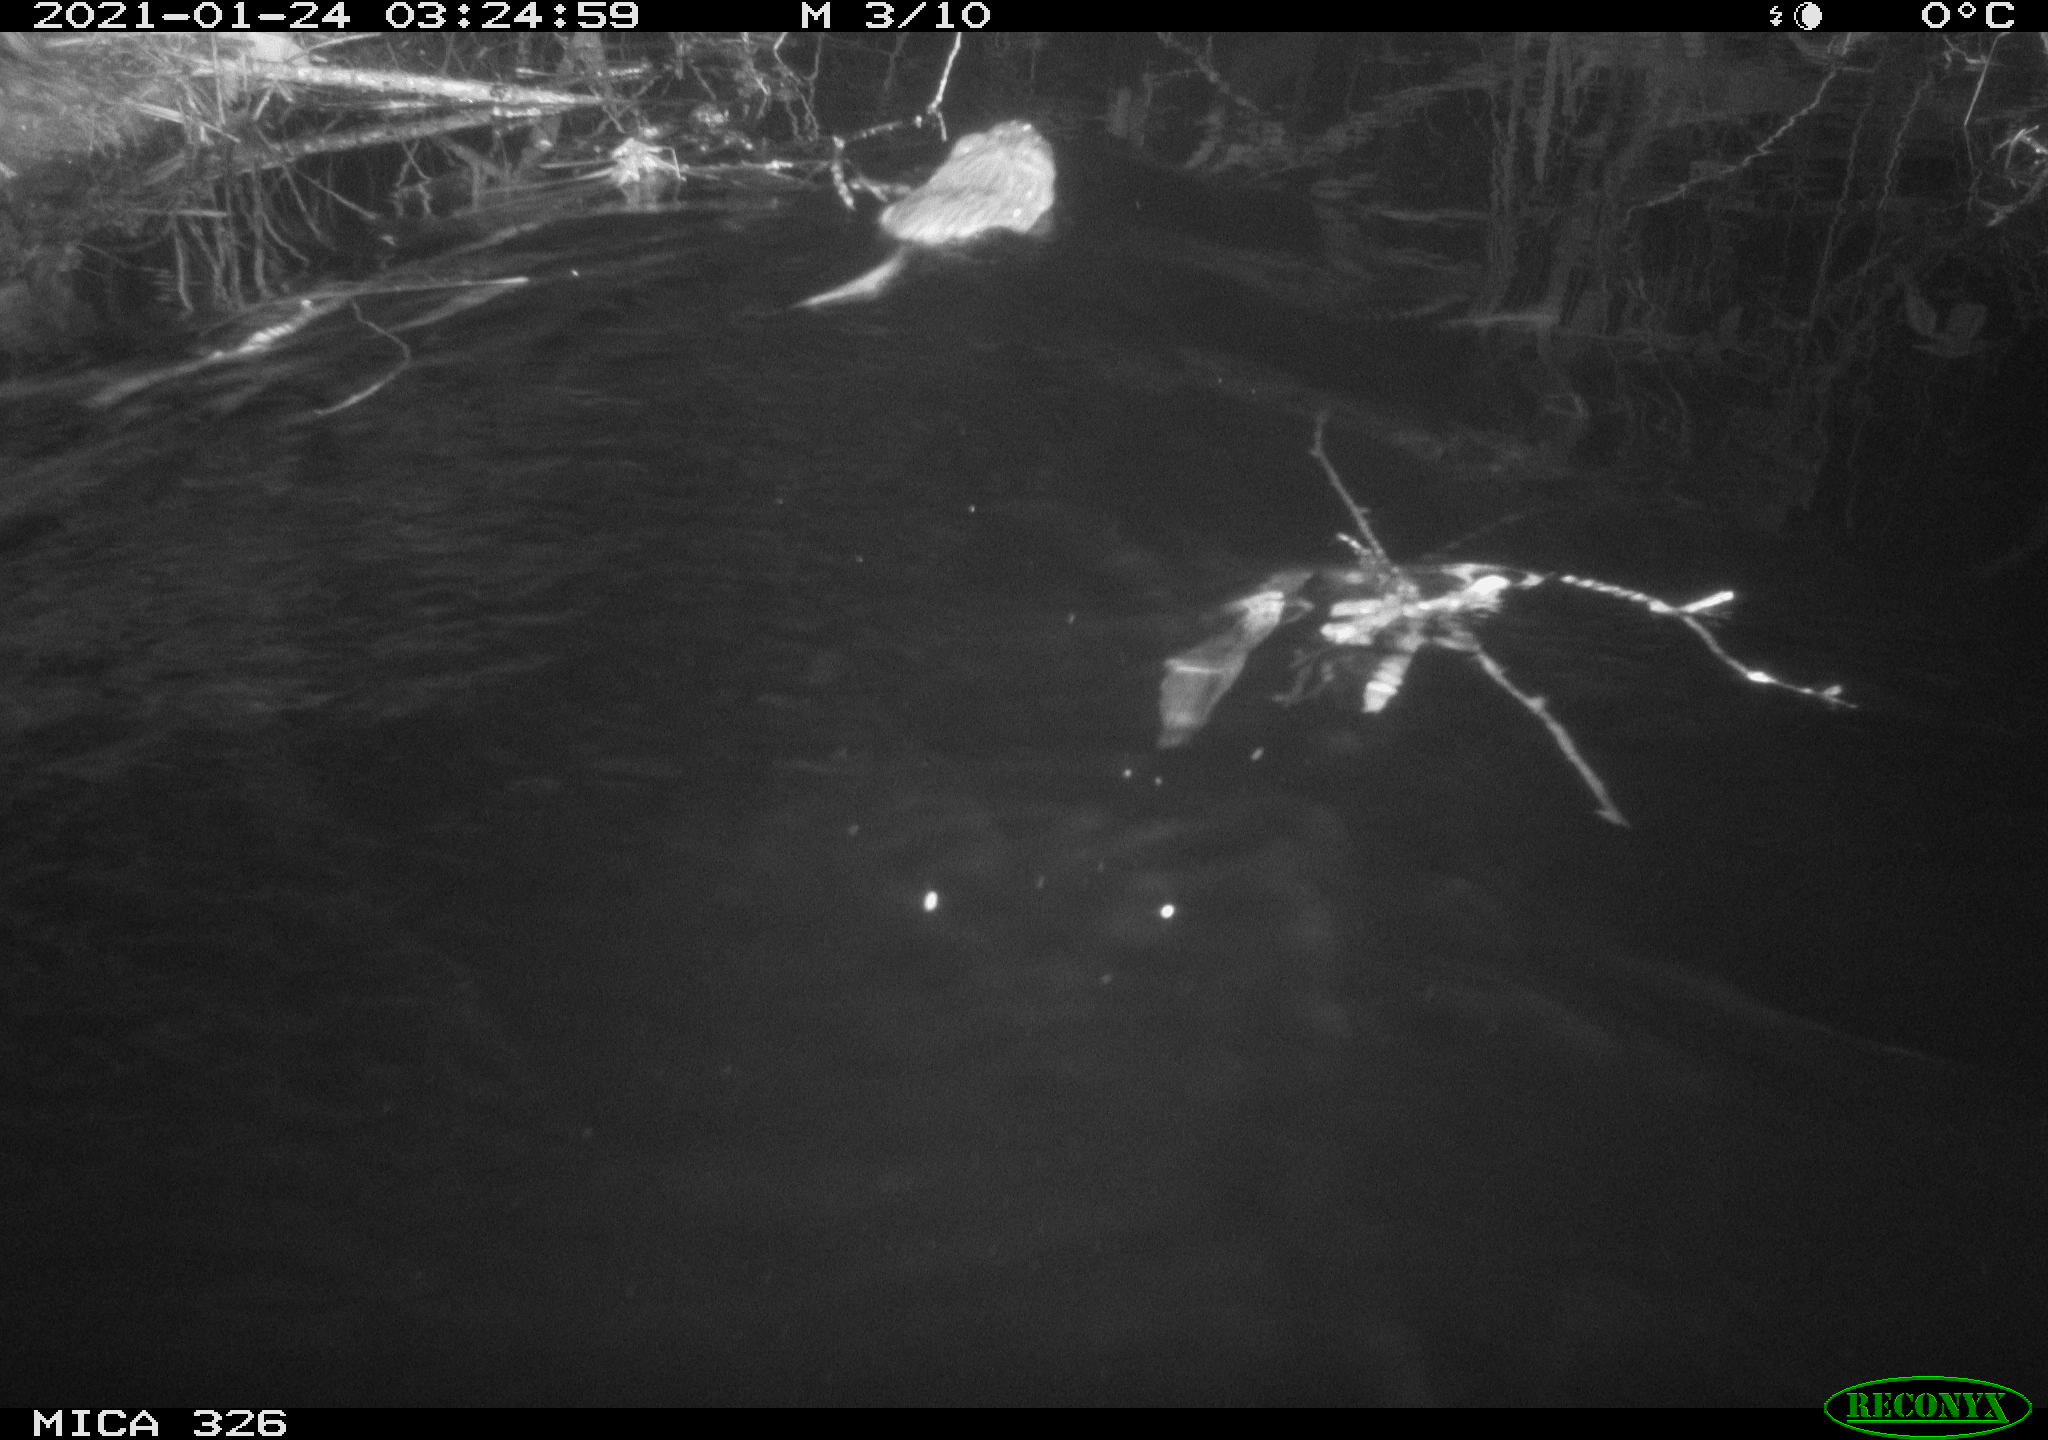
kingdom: Animalia
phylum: Chordata
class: Mammalia
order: Rodentia
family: Cricetidae
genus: Ondatra
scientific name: Ondatra zibethicus
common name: Muskrat
